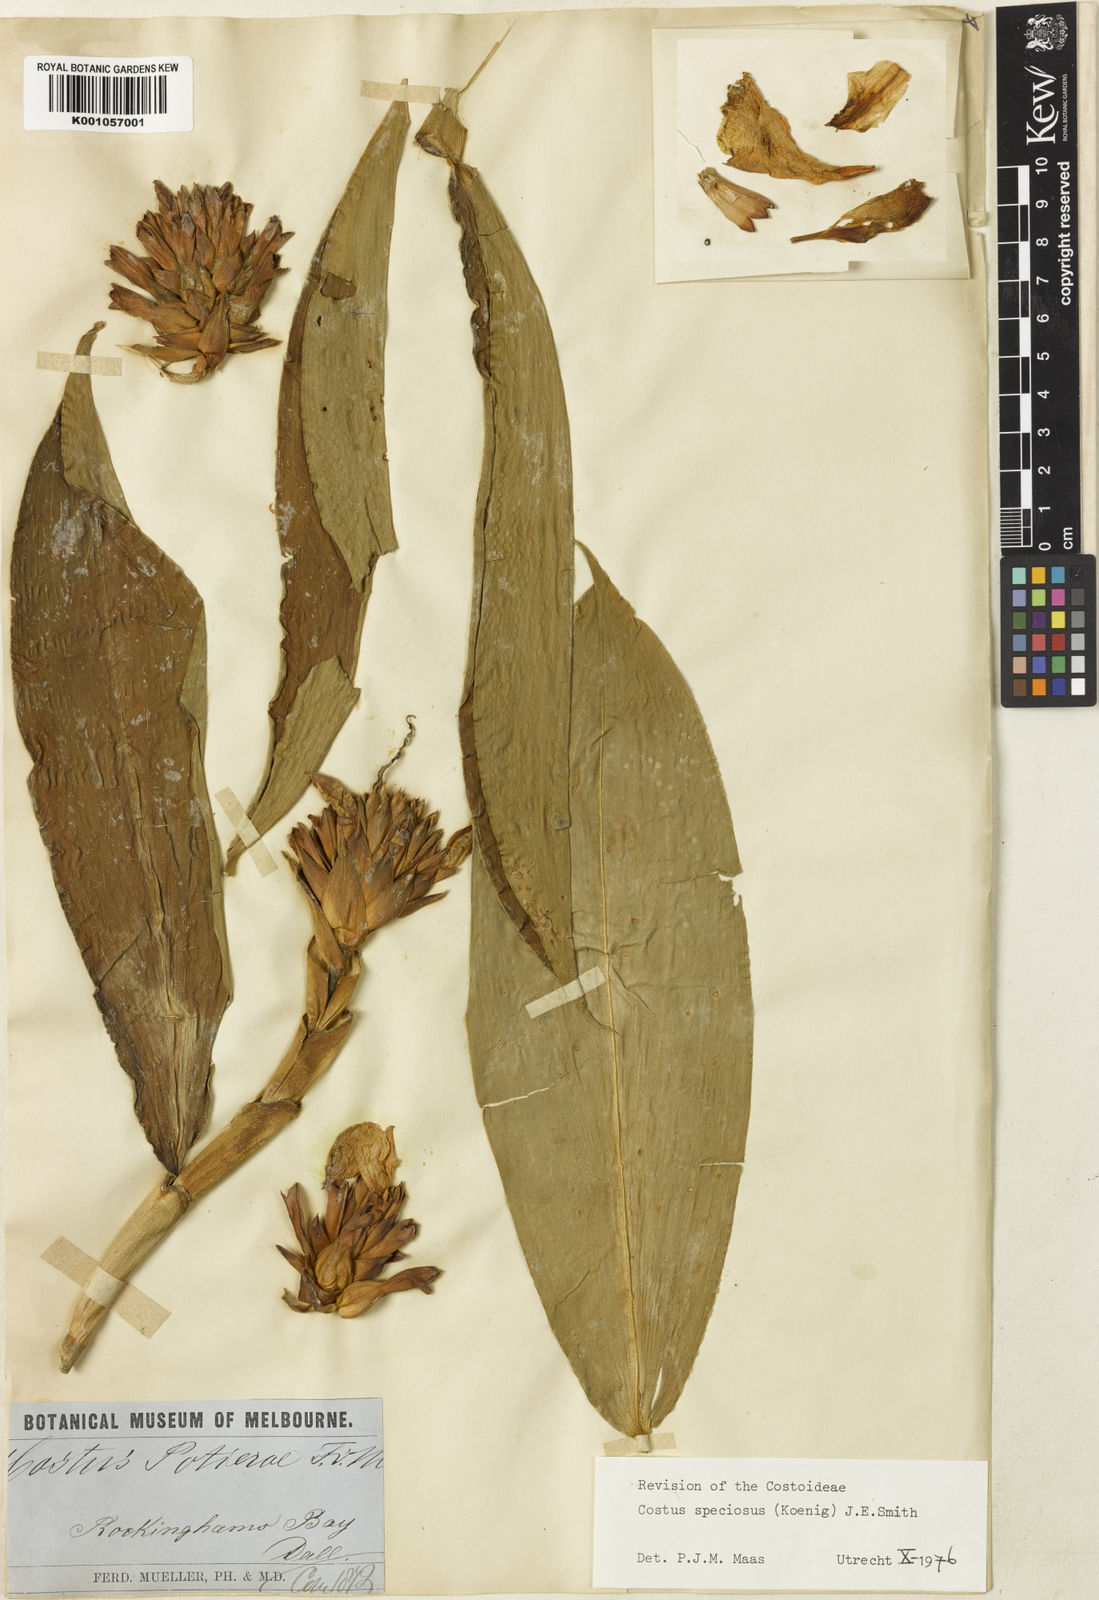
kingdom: Plantae
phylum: Tracheophyta
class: Liliopsida
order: Zingiberales
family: Costaceae
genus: Hellenia
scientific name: Hellenia speciosa
